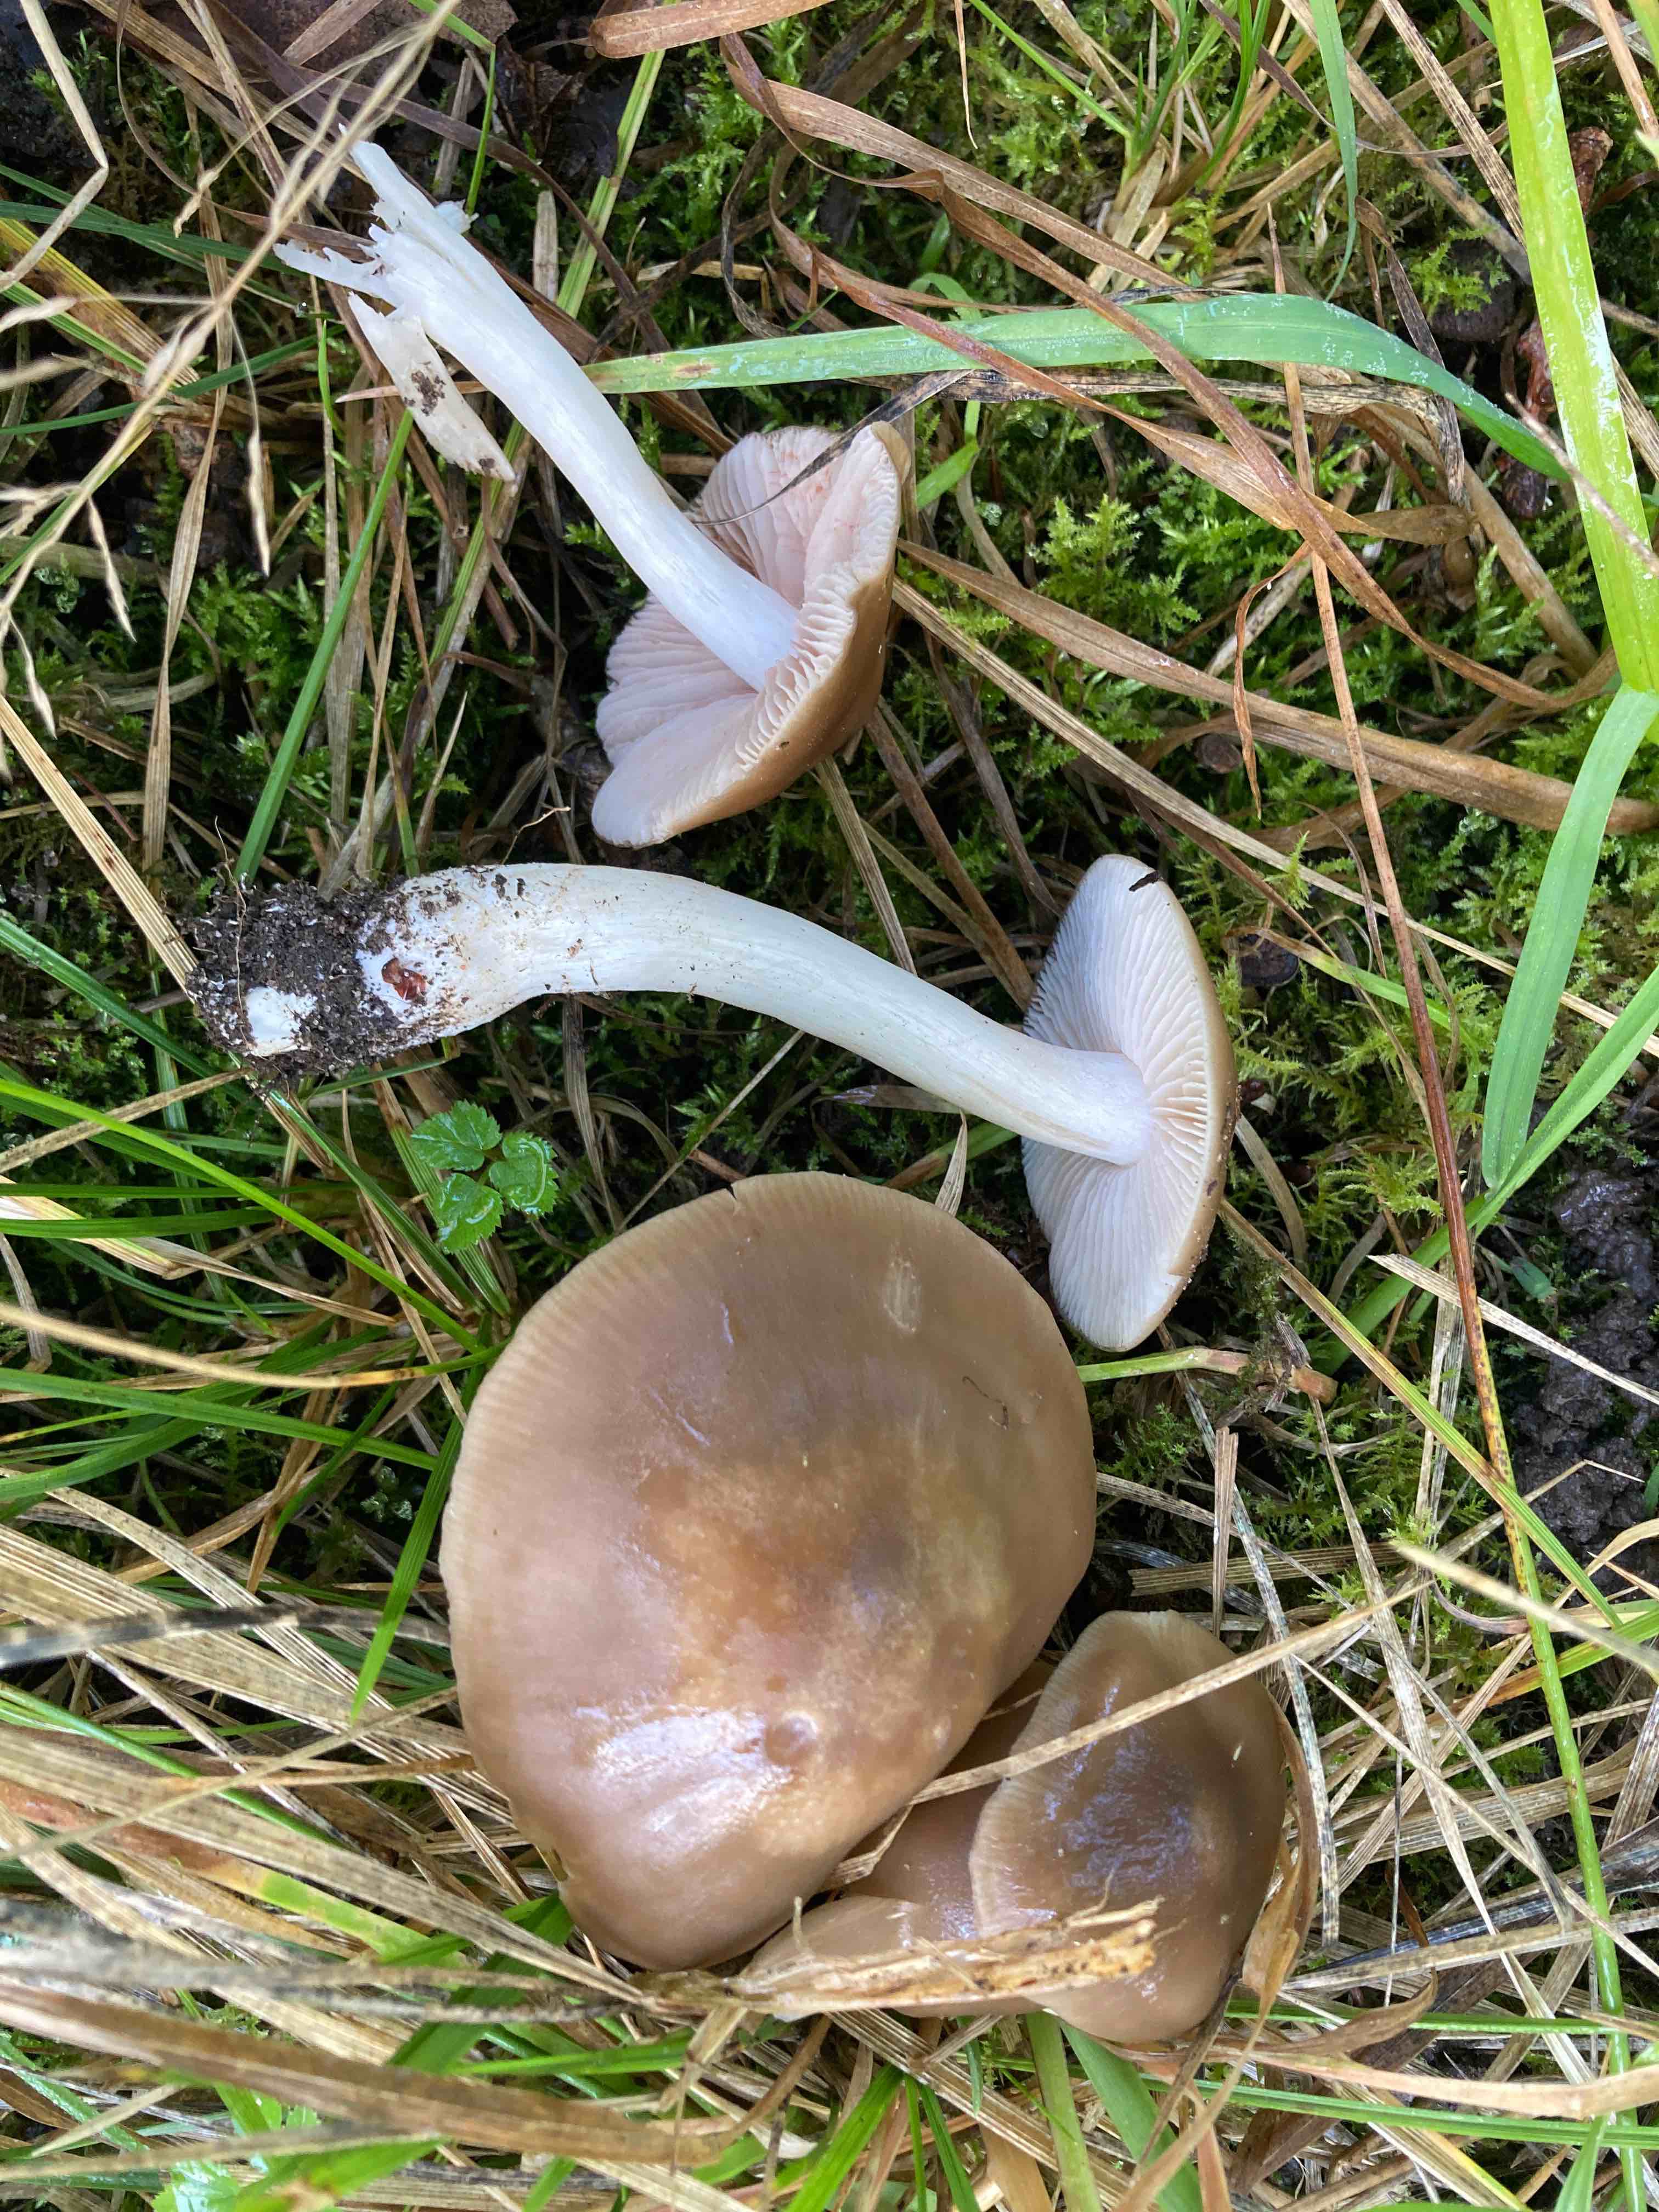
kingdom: Fungi
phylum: Basidiomycota
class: Agaricomycetes
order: Agaricales
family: Entolomataceae
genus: Entoloma
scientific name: Entoloma lividoalbum
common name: lysstokket rødblad
